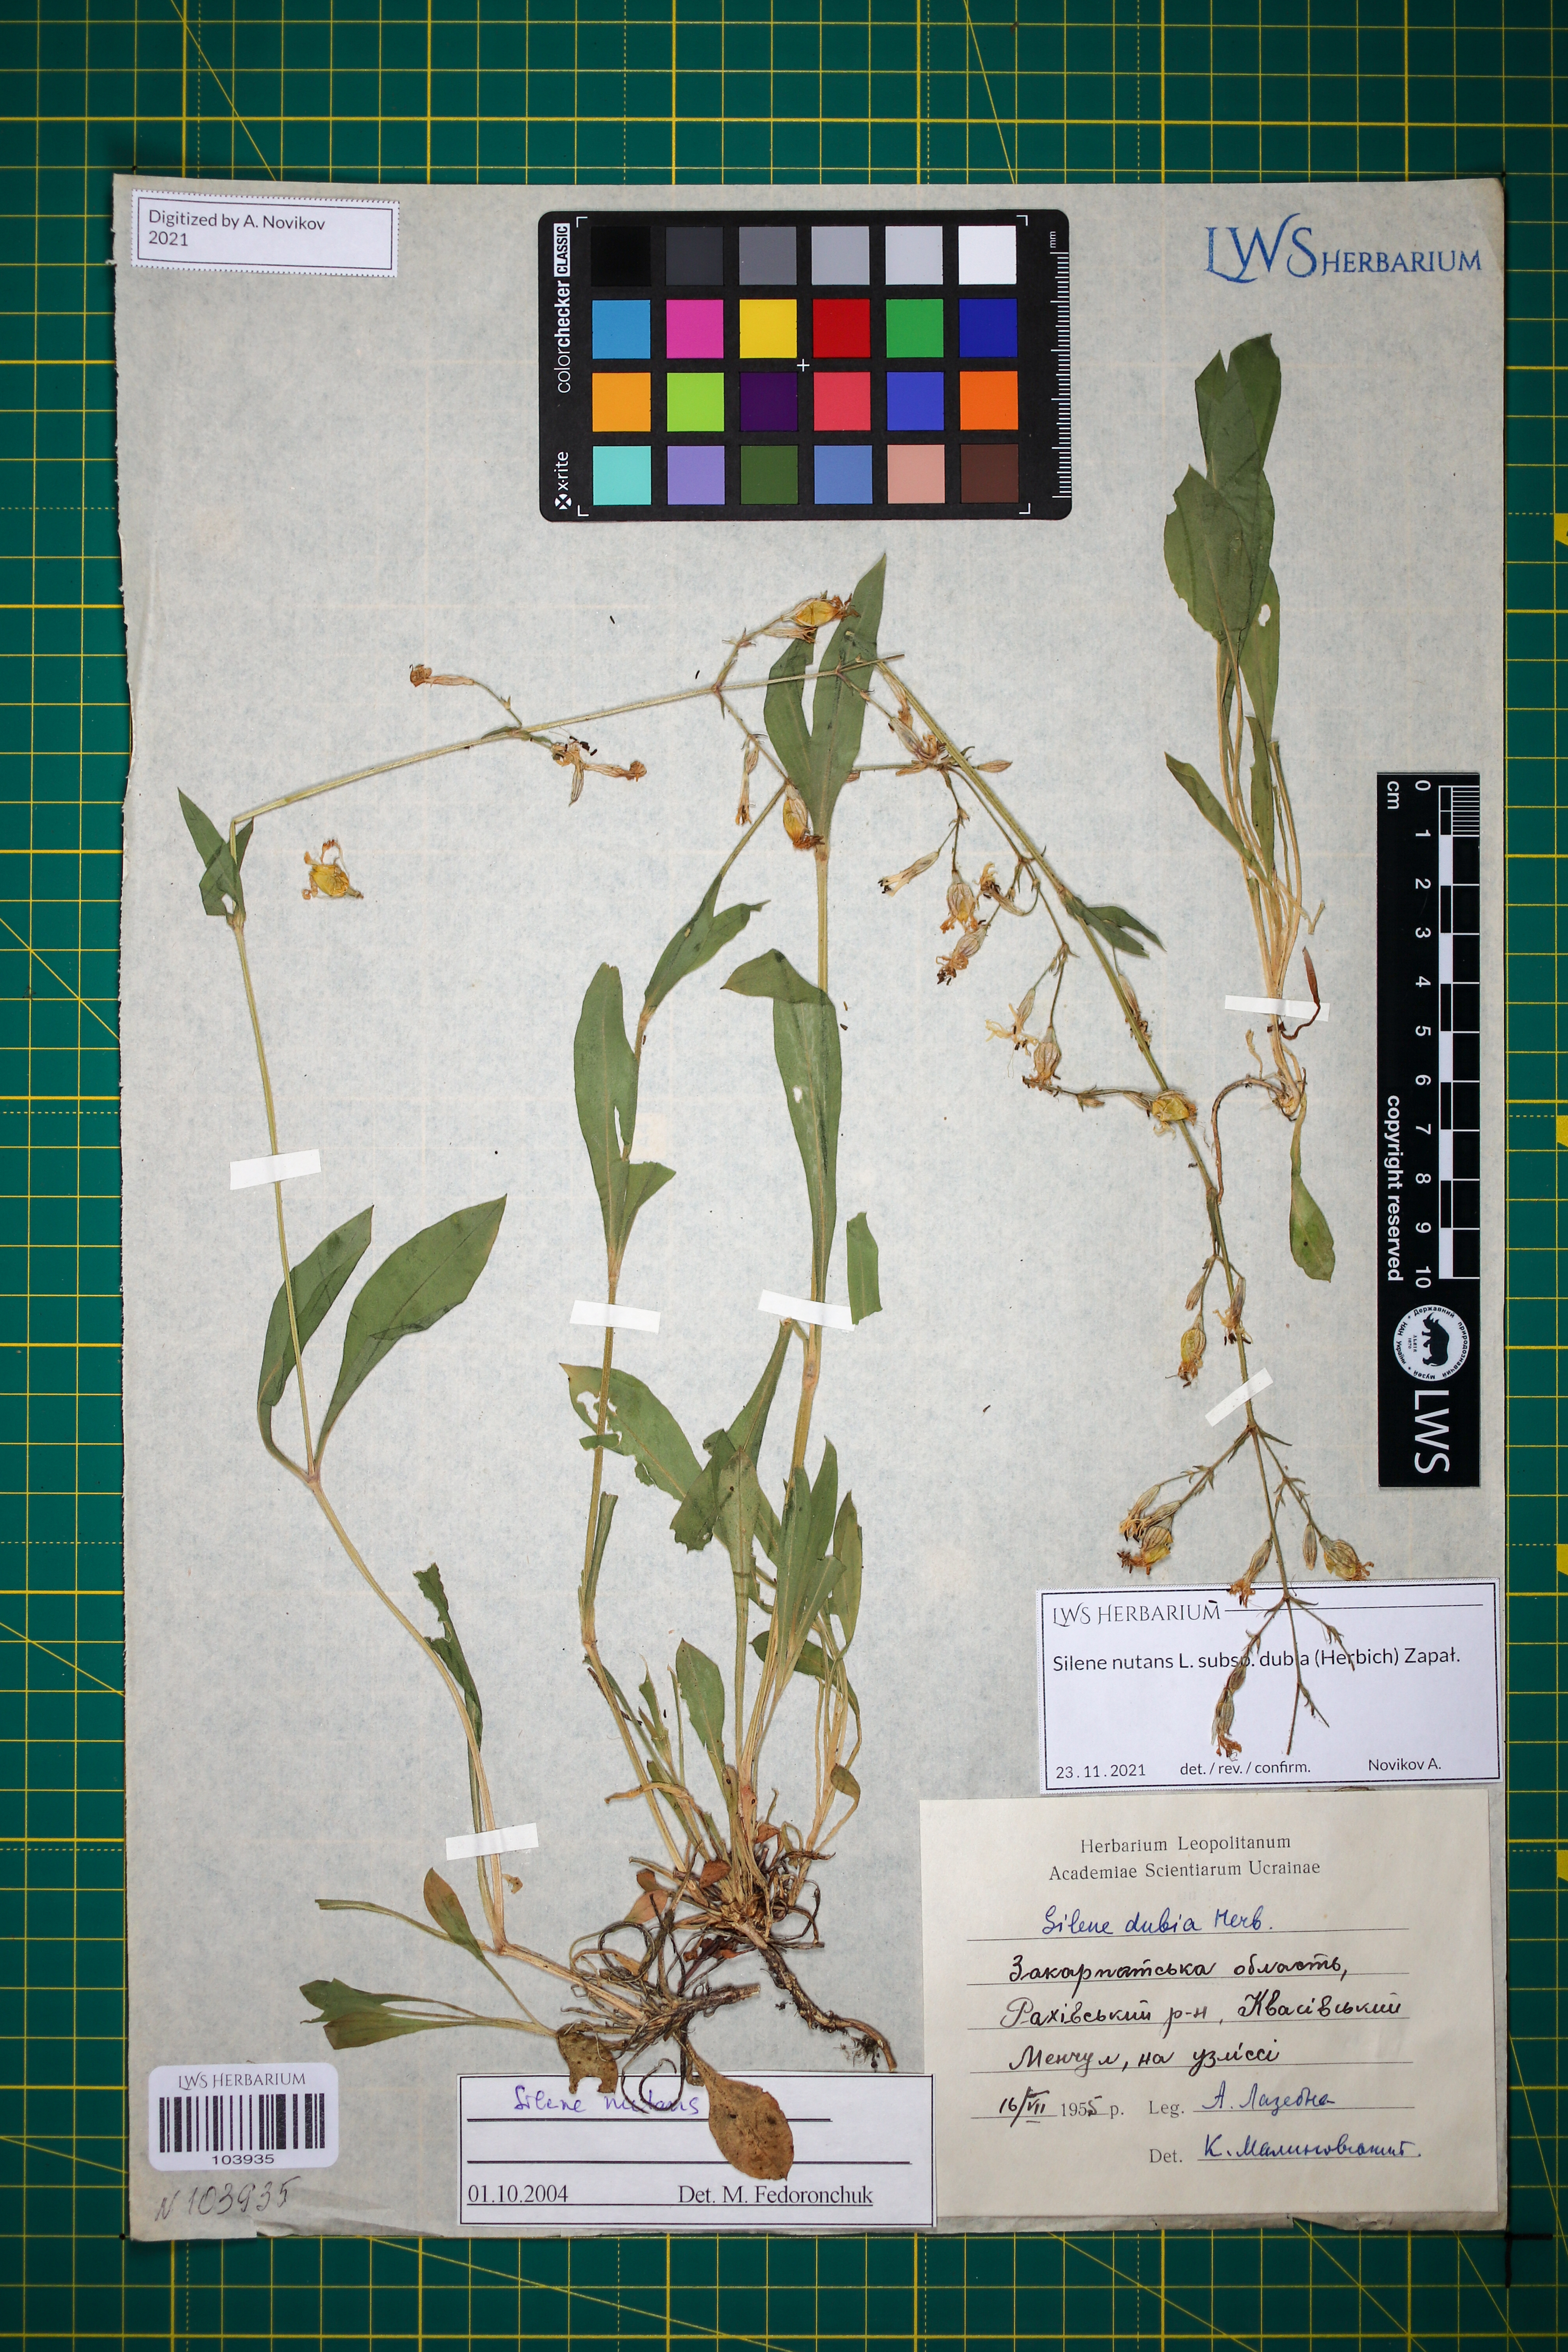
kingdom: Plantae
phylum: Tracheophyta
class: Magnoliopsida
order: Caryophyllales
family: Caryophyllaceae
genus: Silene
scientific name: Silene nutans
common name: Nottingham catchfly
